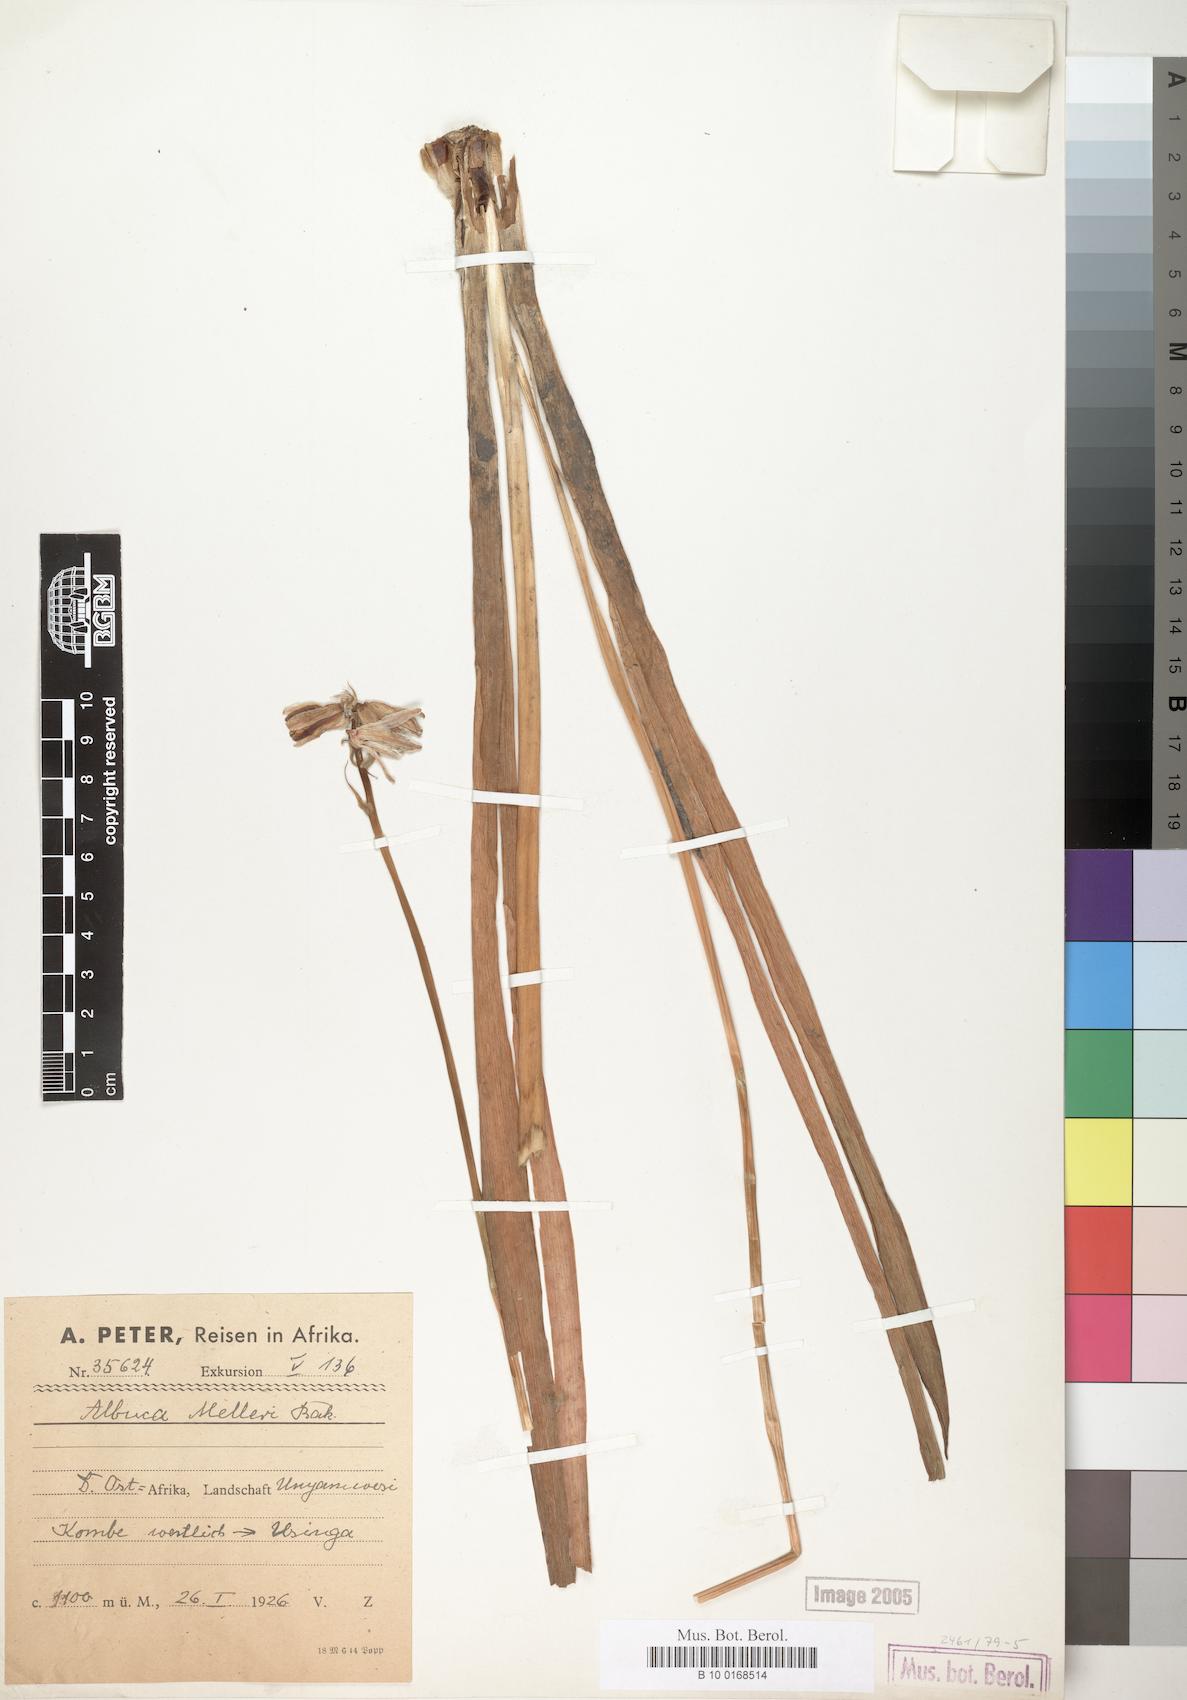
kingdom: Plantae
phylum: Tracheophyta
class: Liliopsida
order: Asparagales
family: Asparagaceae
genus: Albuca
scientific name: Albuca abyssinica
